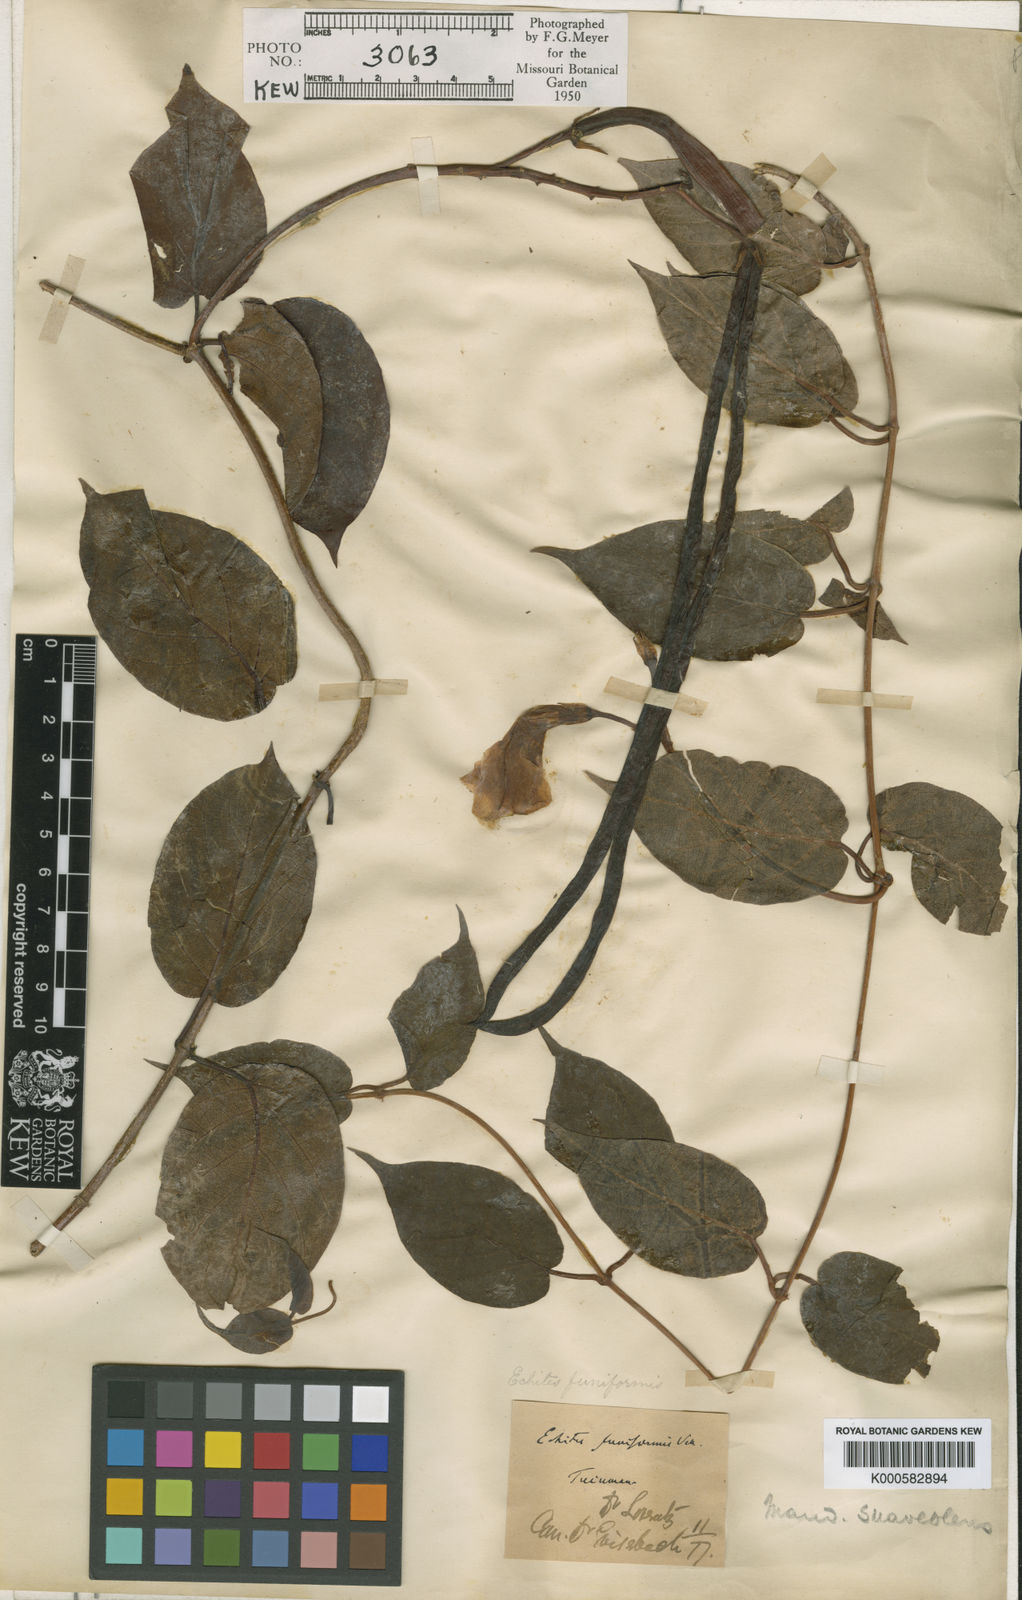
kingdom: Plantae
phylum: Tracheophyta
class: Magnoliopsida
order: Gentianales
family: Apocynaceae
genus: Mandevilla
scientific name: Mandevilla laxa
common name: Chilean-jasmine
